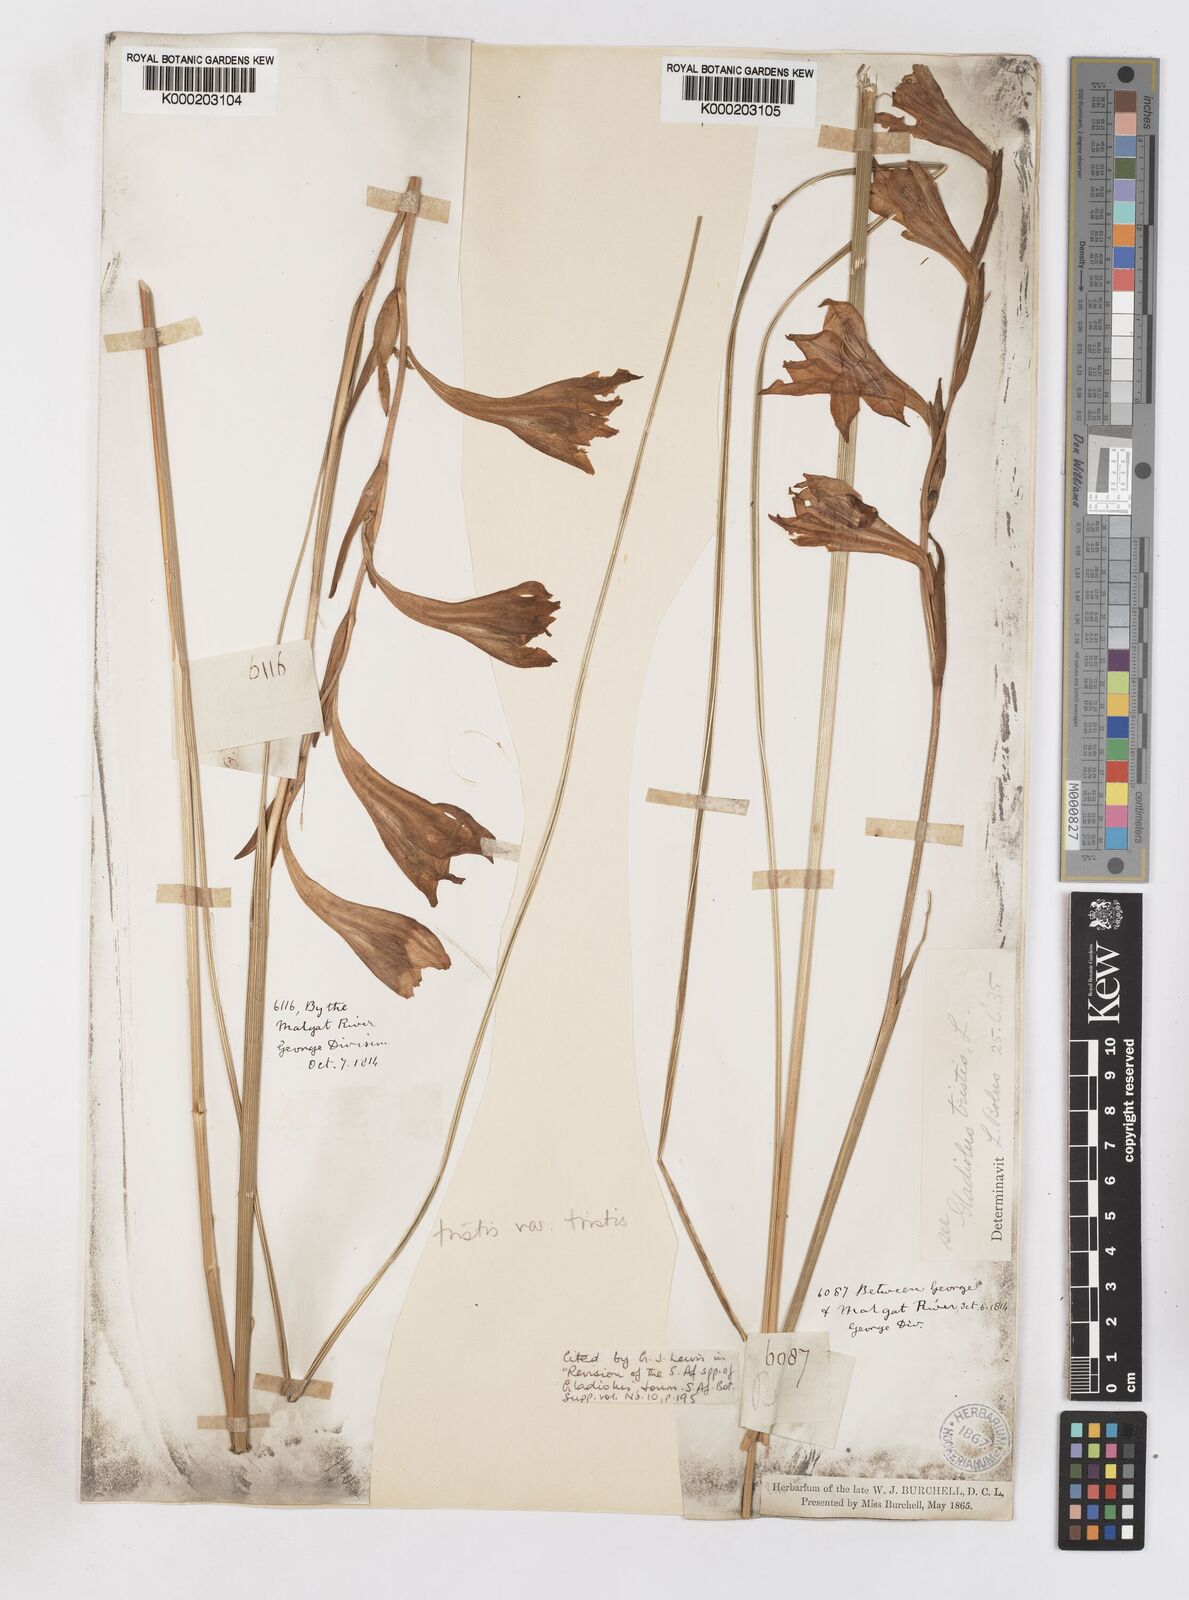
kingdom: Plantae
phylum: Tracheophyta
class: Liliopsida
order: Asparagales
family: Iridaceae
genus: Gladiolus
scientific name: Gladiolus tristis
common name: Ever-flowering gladiolus
